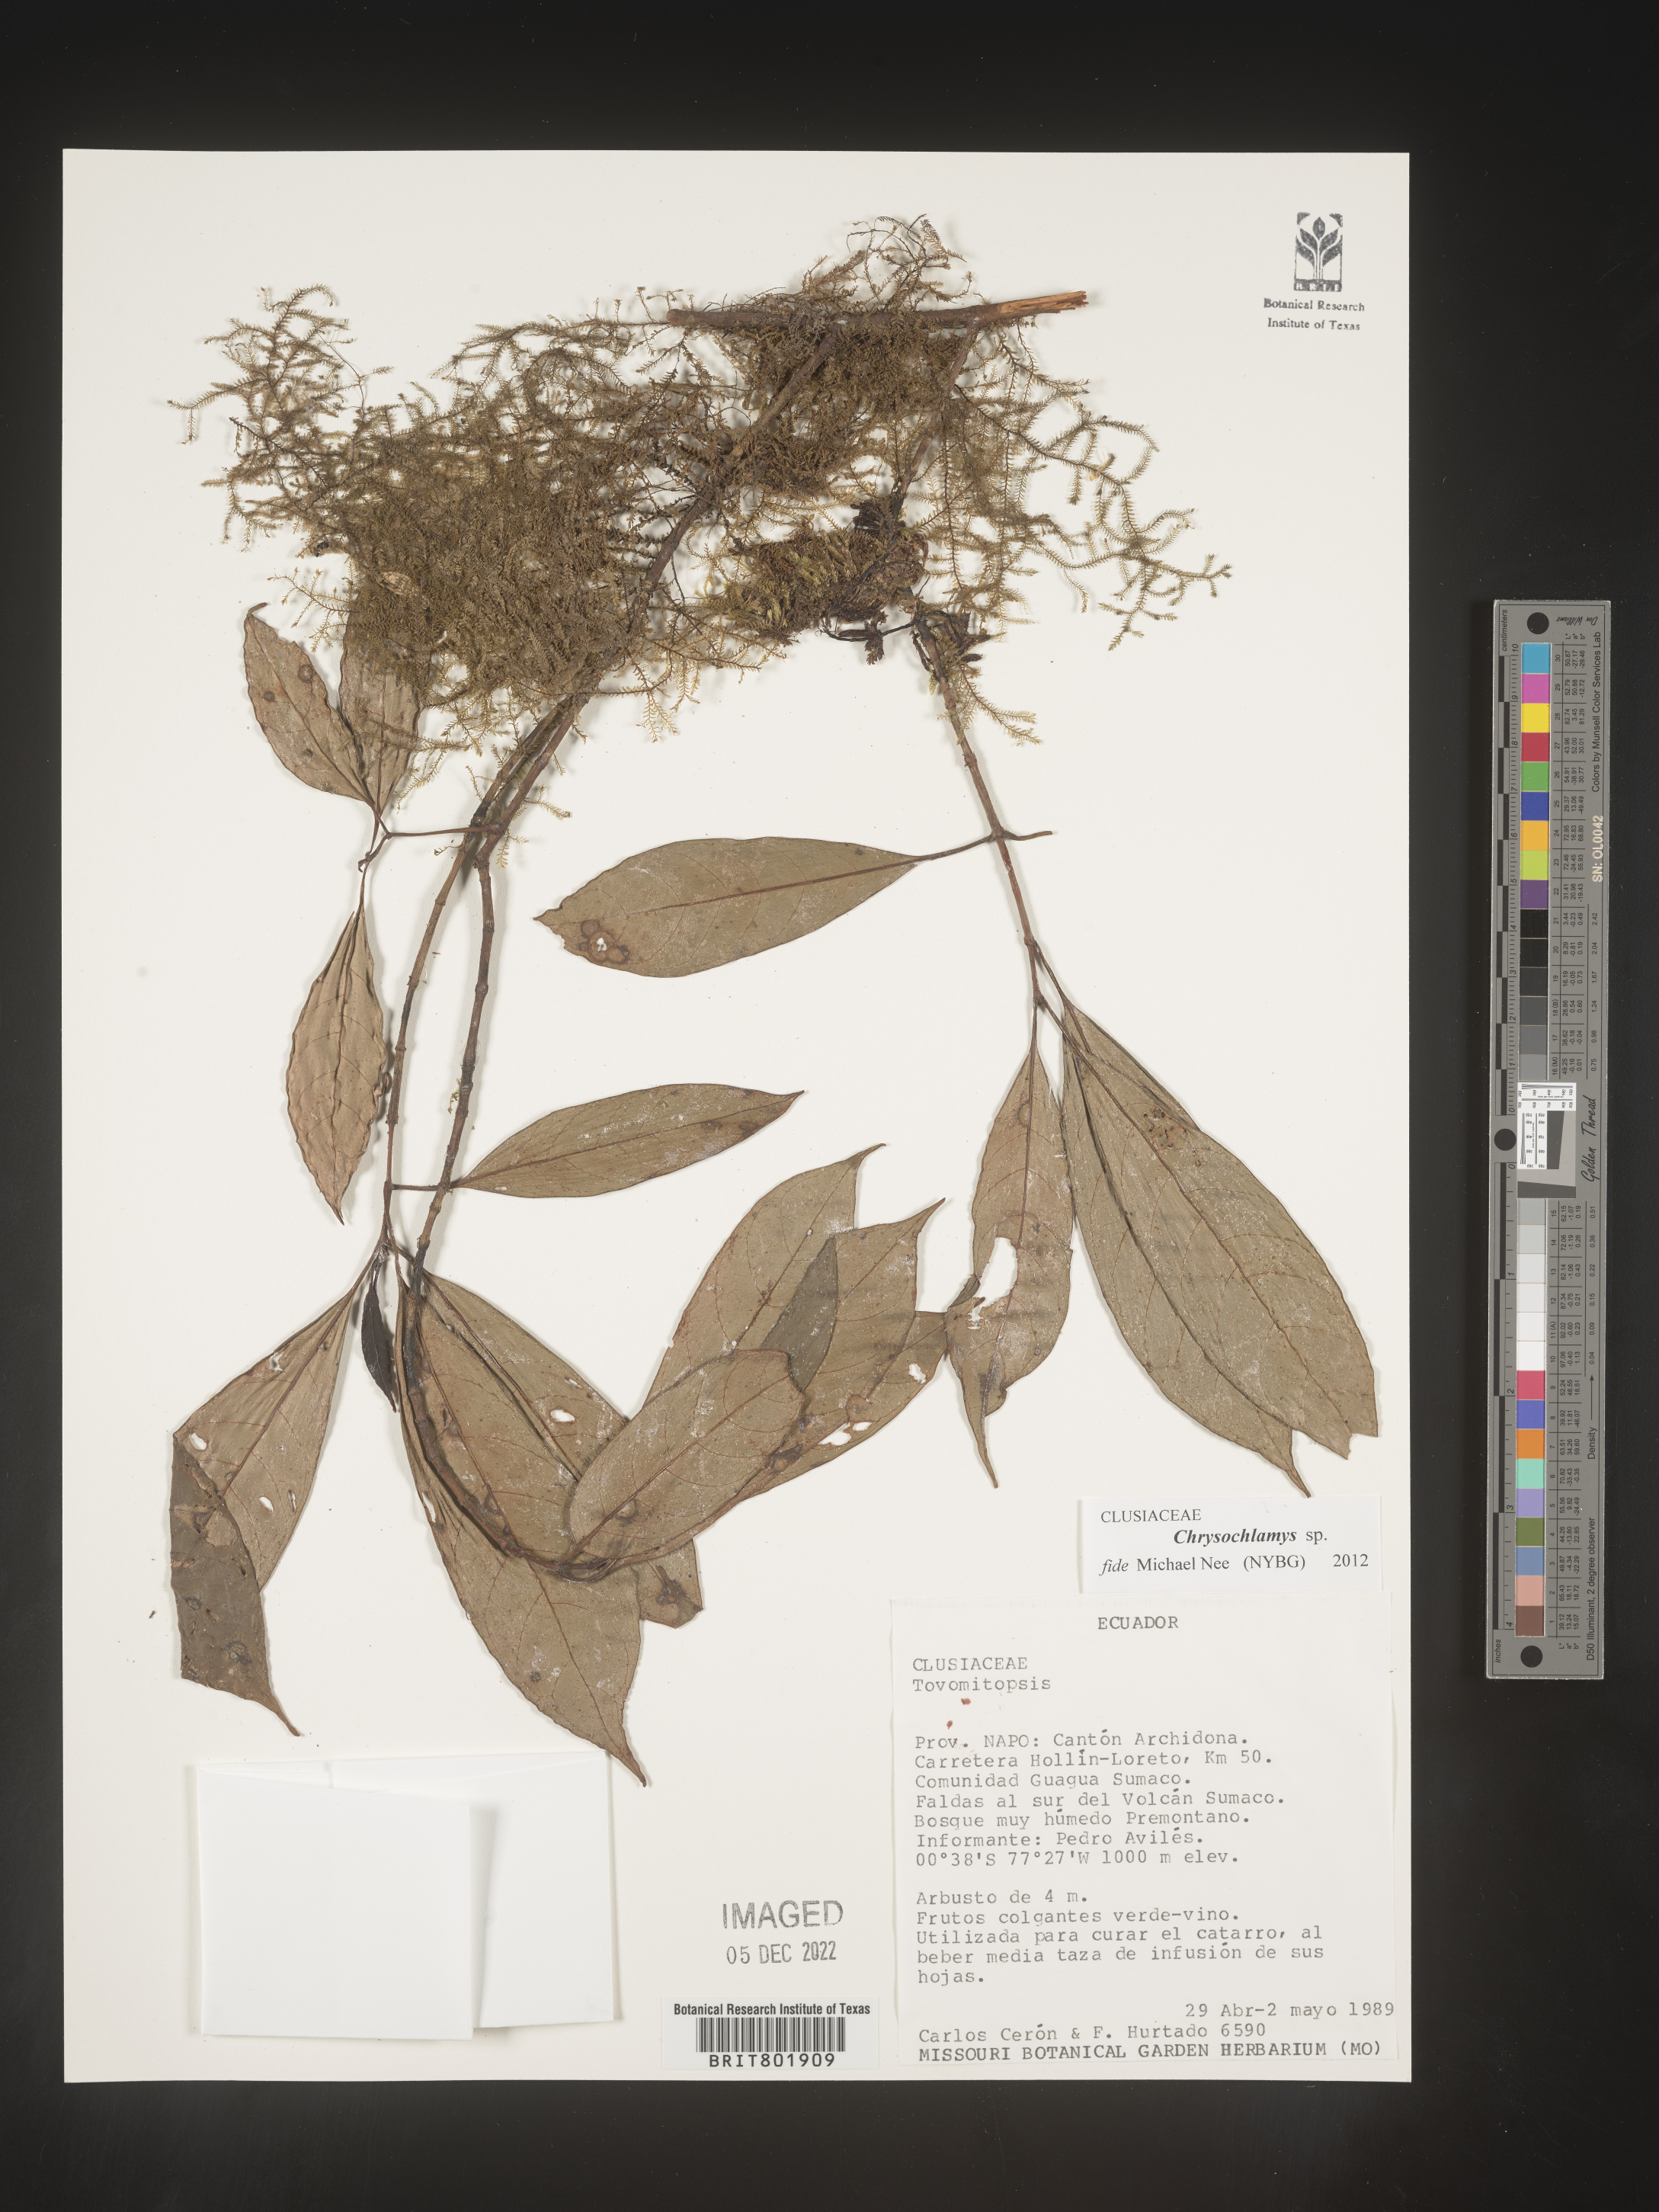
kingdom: Plantae
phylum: Tracheophyta
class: Magnoliopsida
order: Malpighiales
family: Clusiaceae
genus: Chrysochlamys
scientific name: Chrysochlamys
